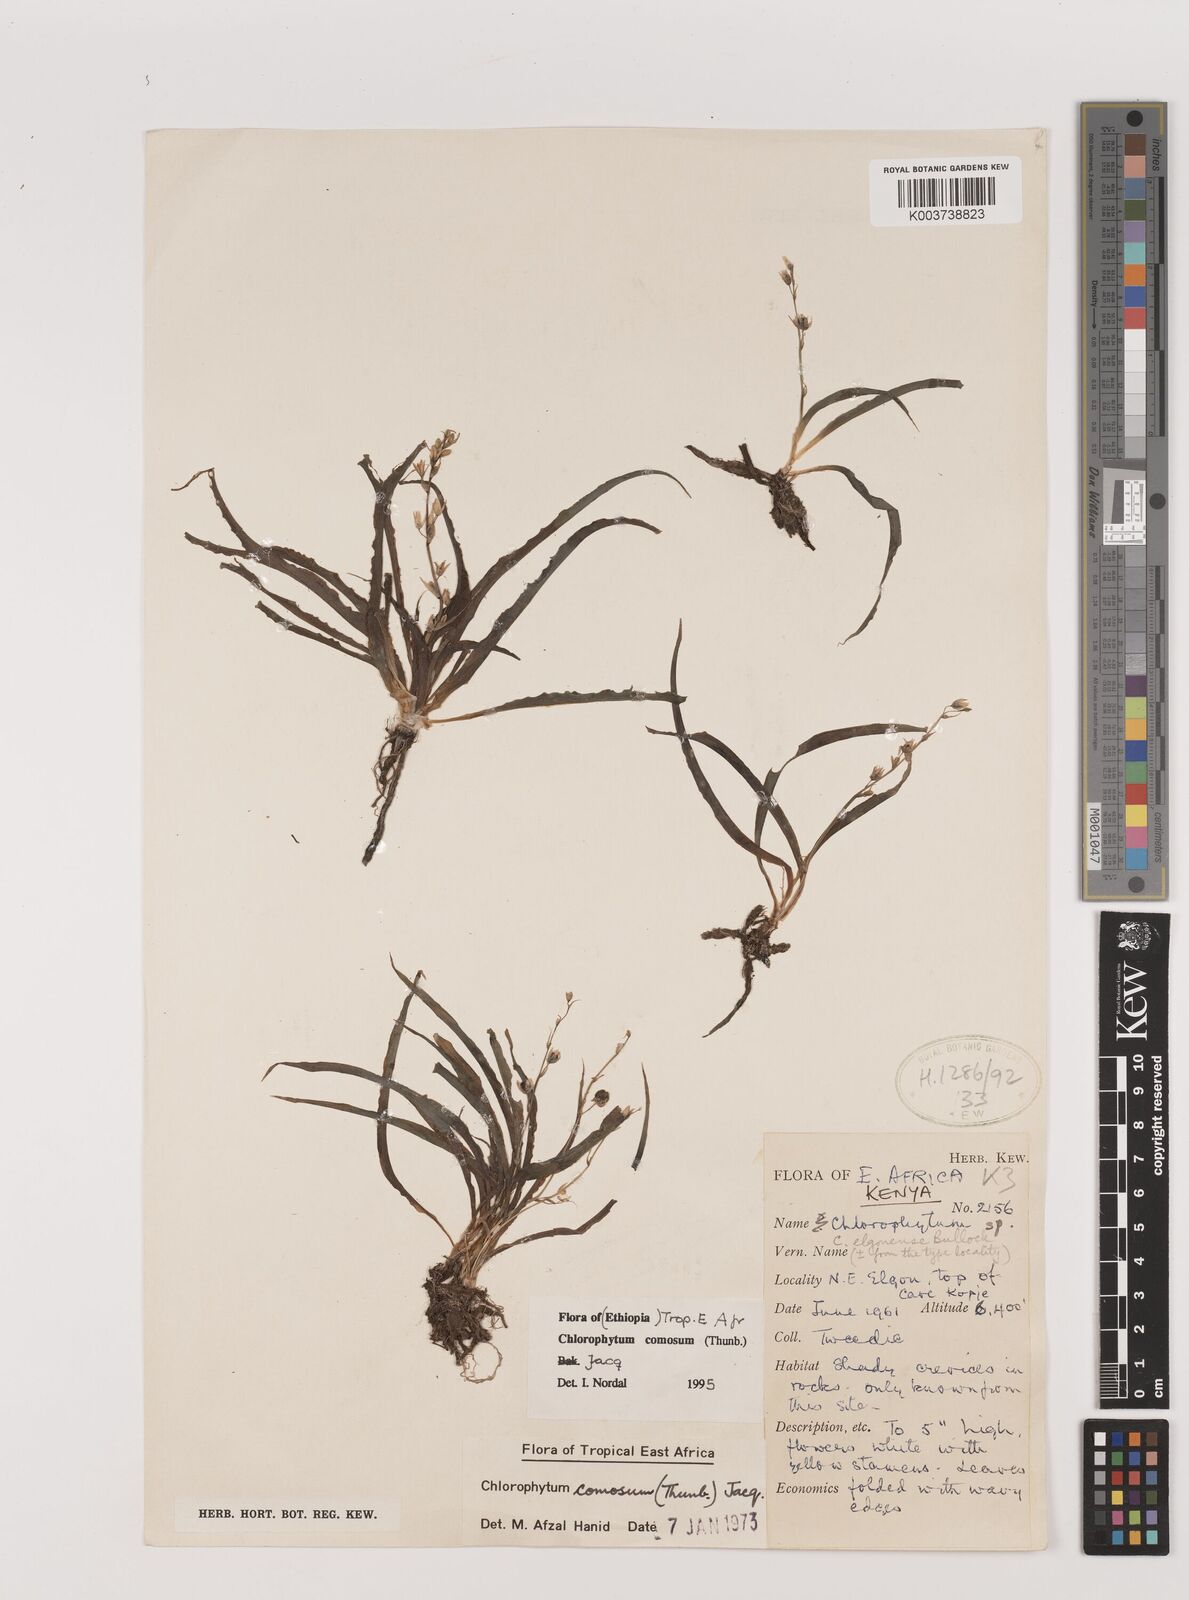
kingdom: Plantae
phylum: Tracheophyta
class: Liliopsida
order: Asparagales
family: Asparagaceae
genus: Chlorophytum
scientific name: Chlorophytum comosum
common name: Spider plant
